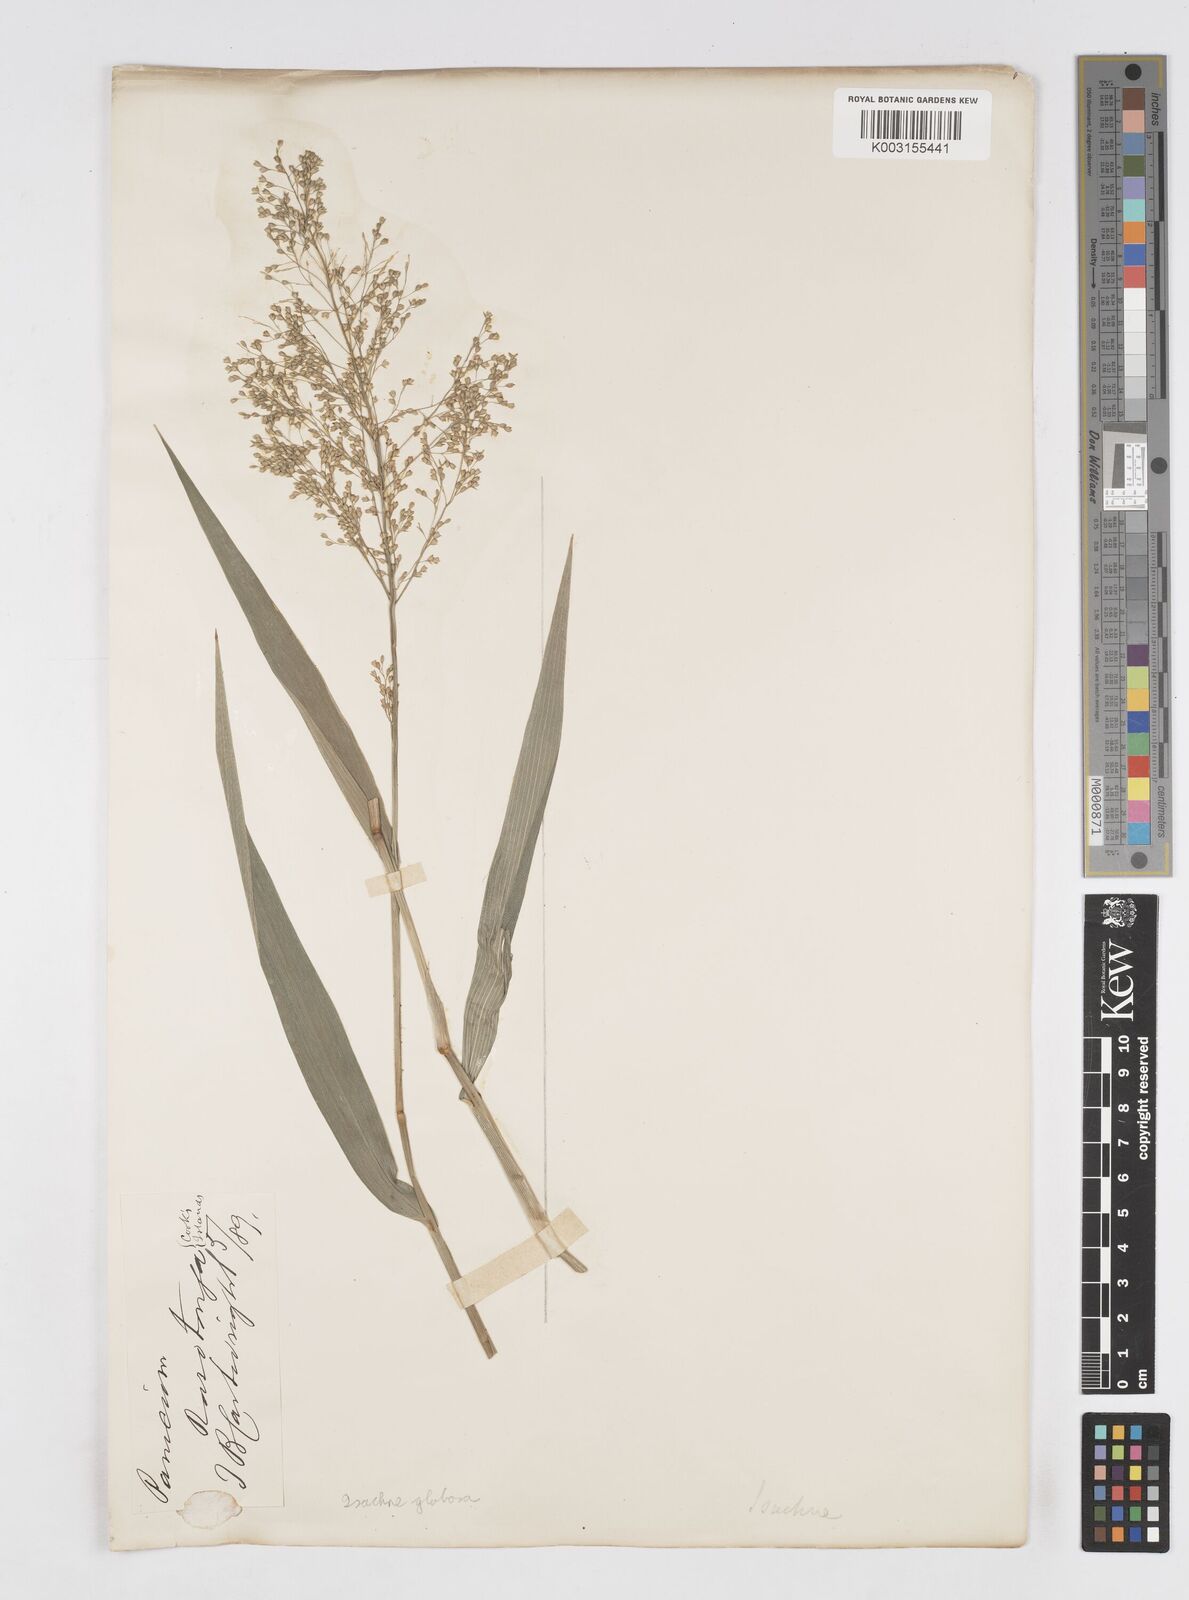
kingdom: Plantae
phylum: Tracheophyta
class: Liliopsida
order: Poales
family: Poaceae
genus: Isachne
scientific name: Isachne globosa
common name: Swamp millet
